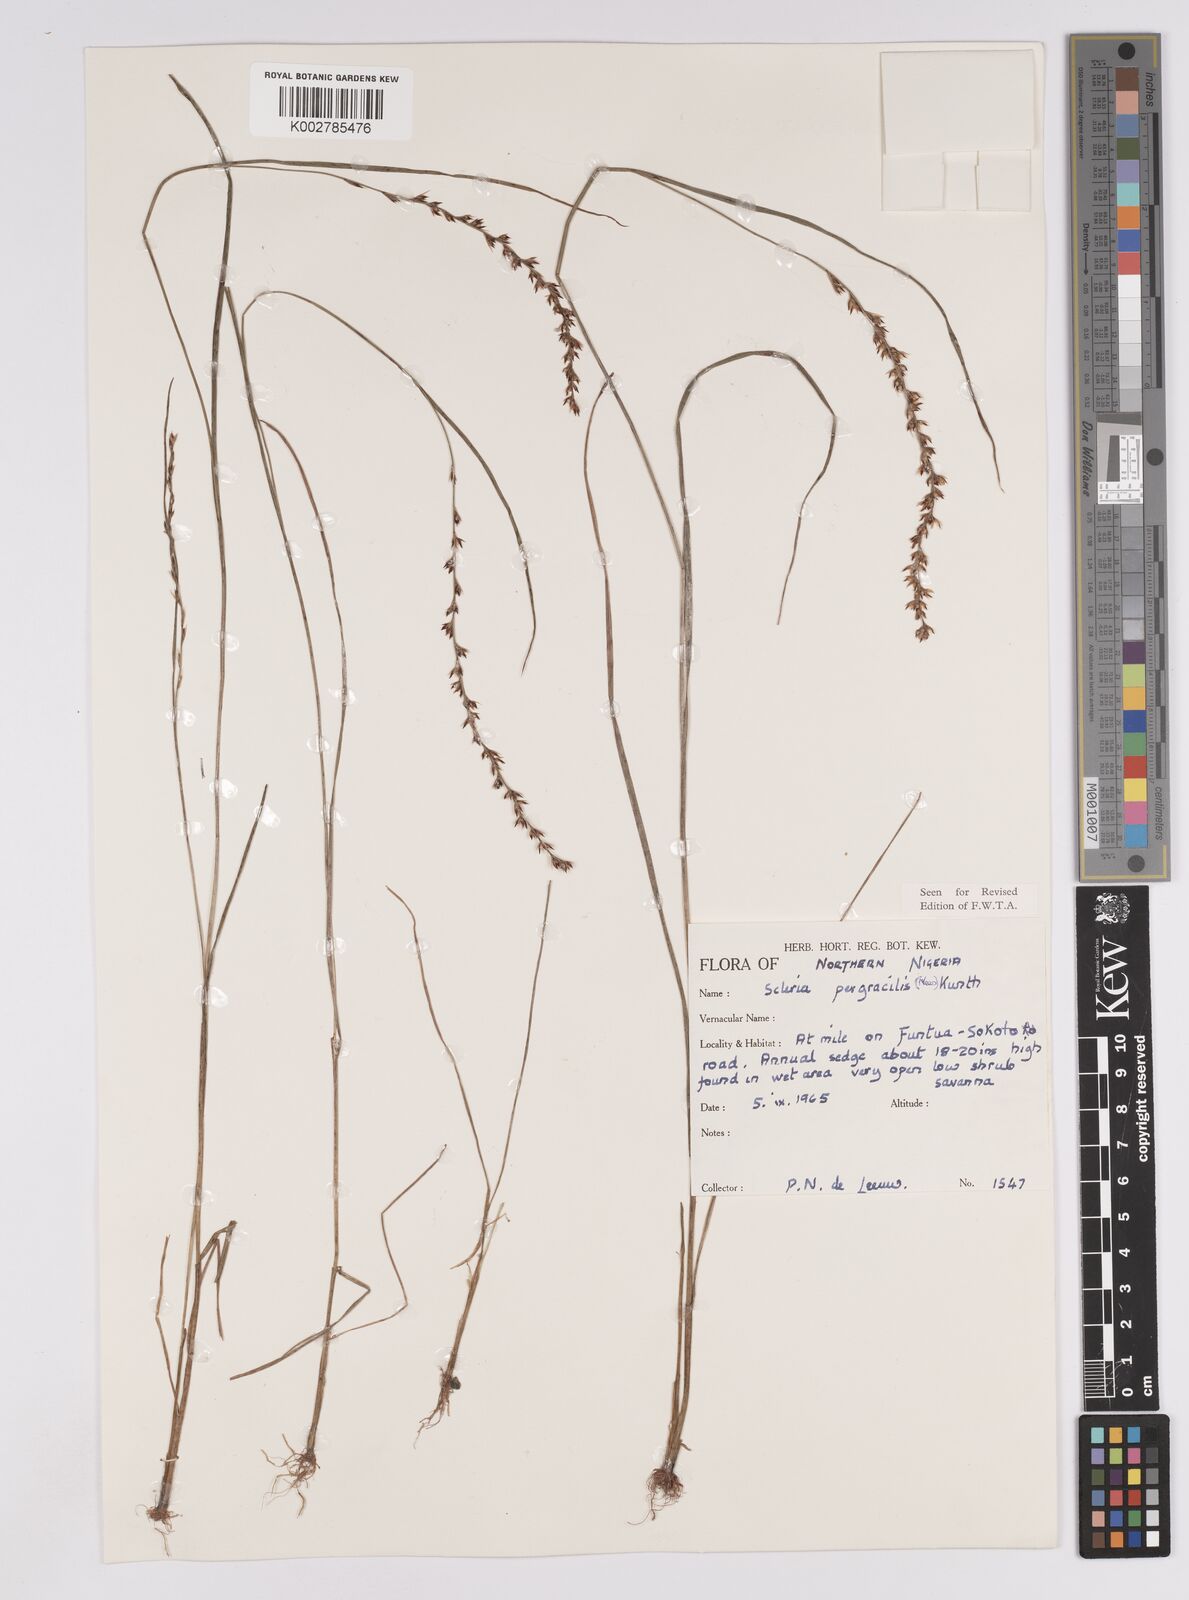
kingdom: Plantae
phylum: Tracheophyta
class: Liliopsida
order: Poales
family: Cyperaceae
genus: Scleria
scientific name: Scleria pergracilis
